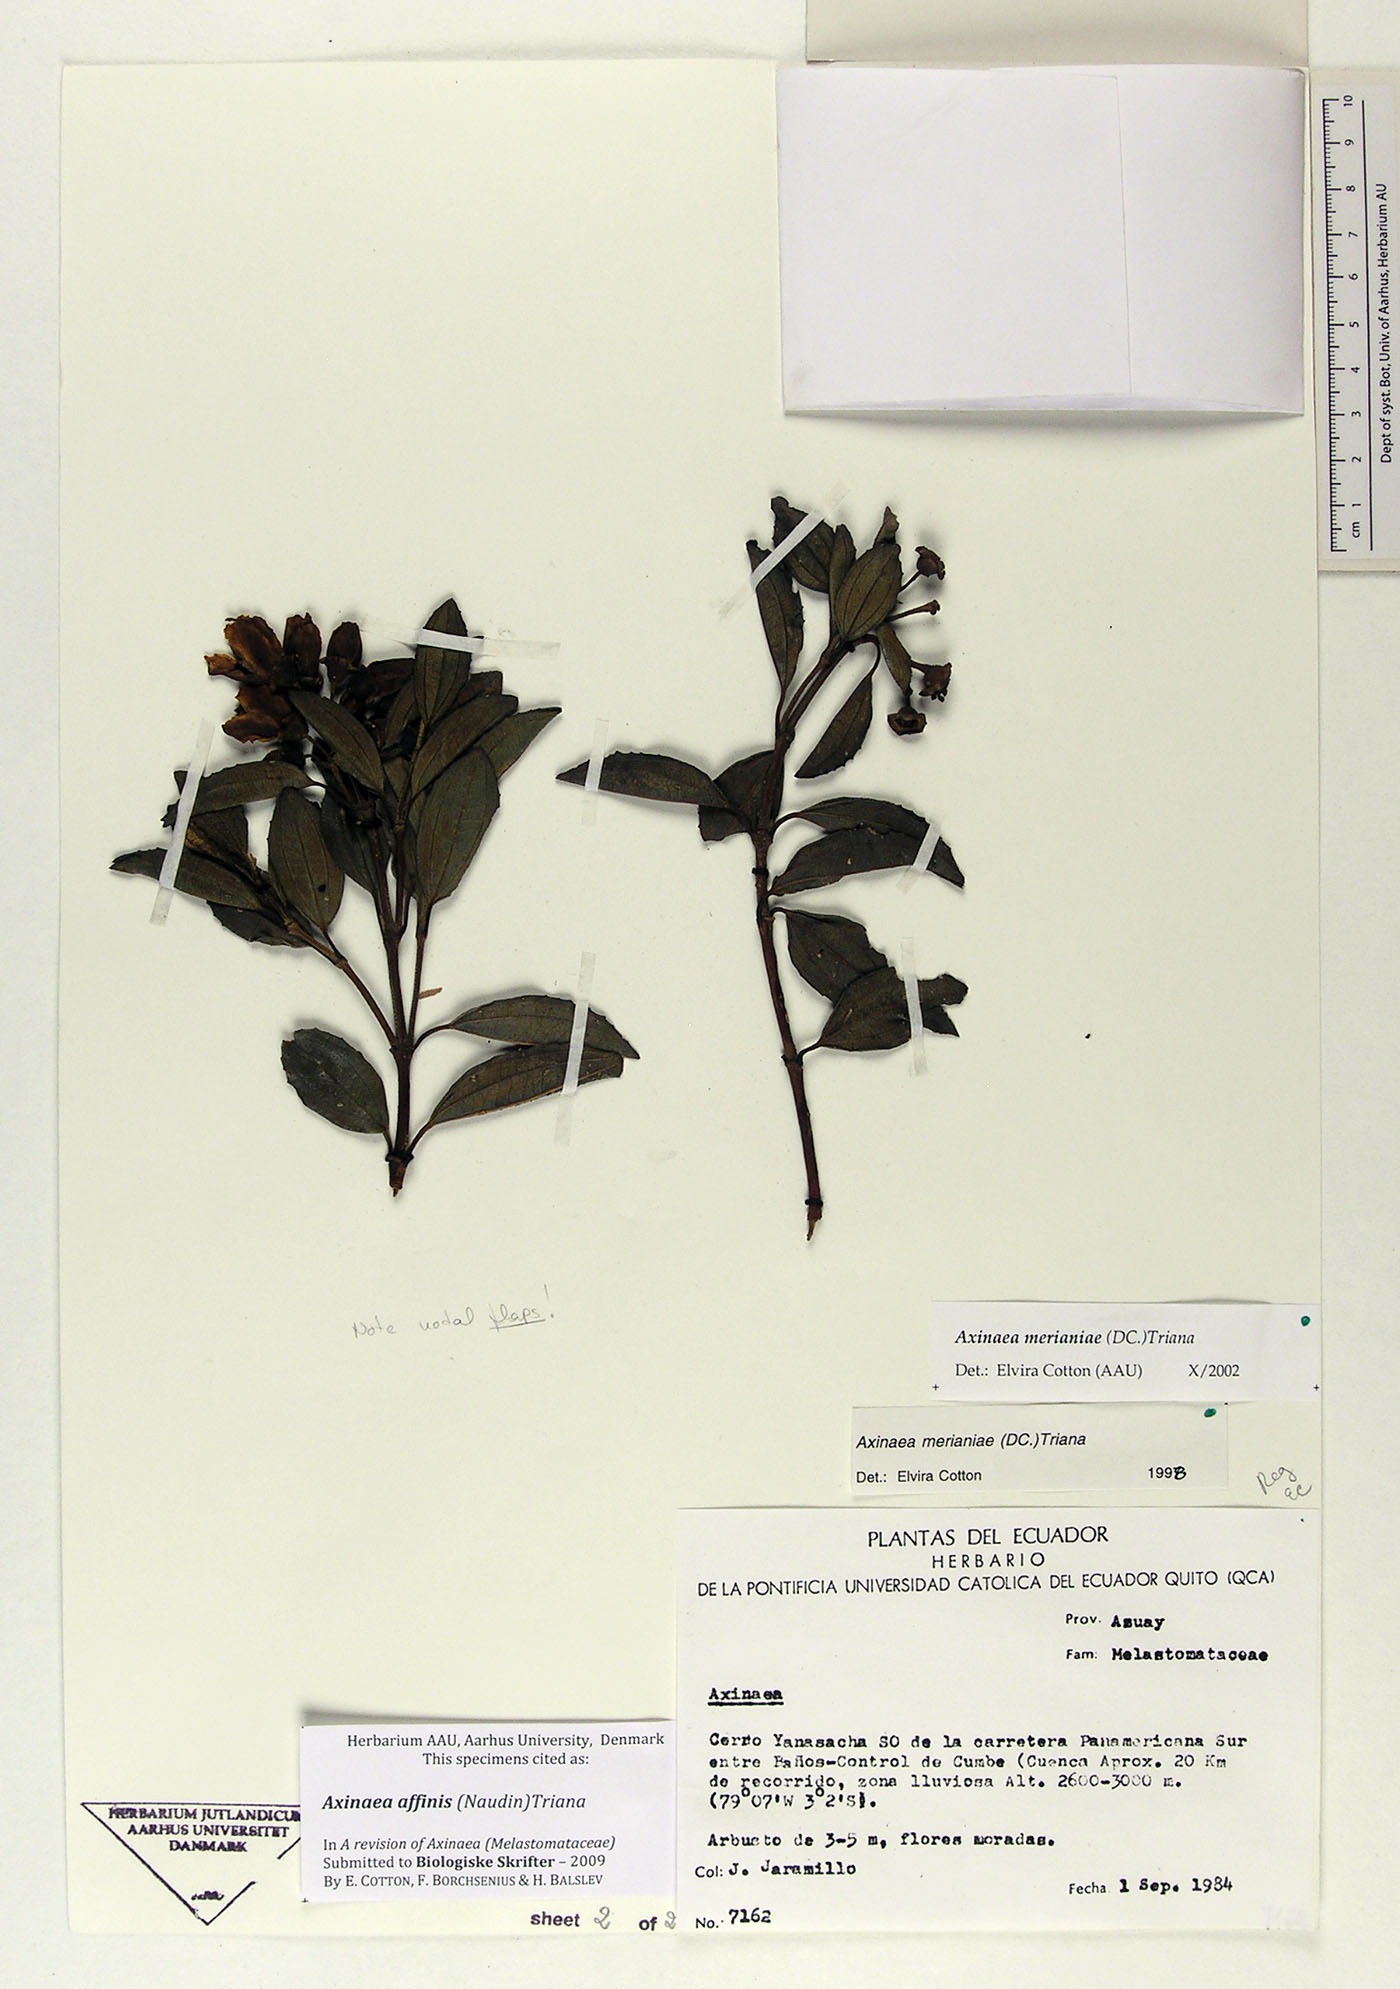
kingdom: Plantae
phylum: Tracheophyta
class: Magnoliopsida
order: Myrtales
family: Melastomataceae
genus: Axinaea
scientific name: Axinaea affinis
